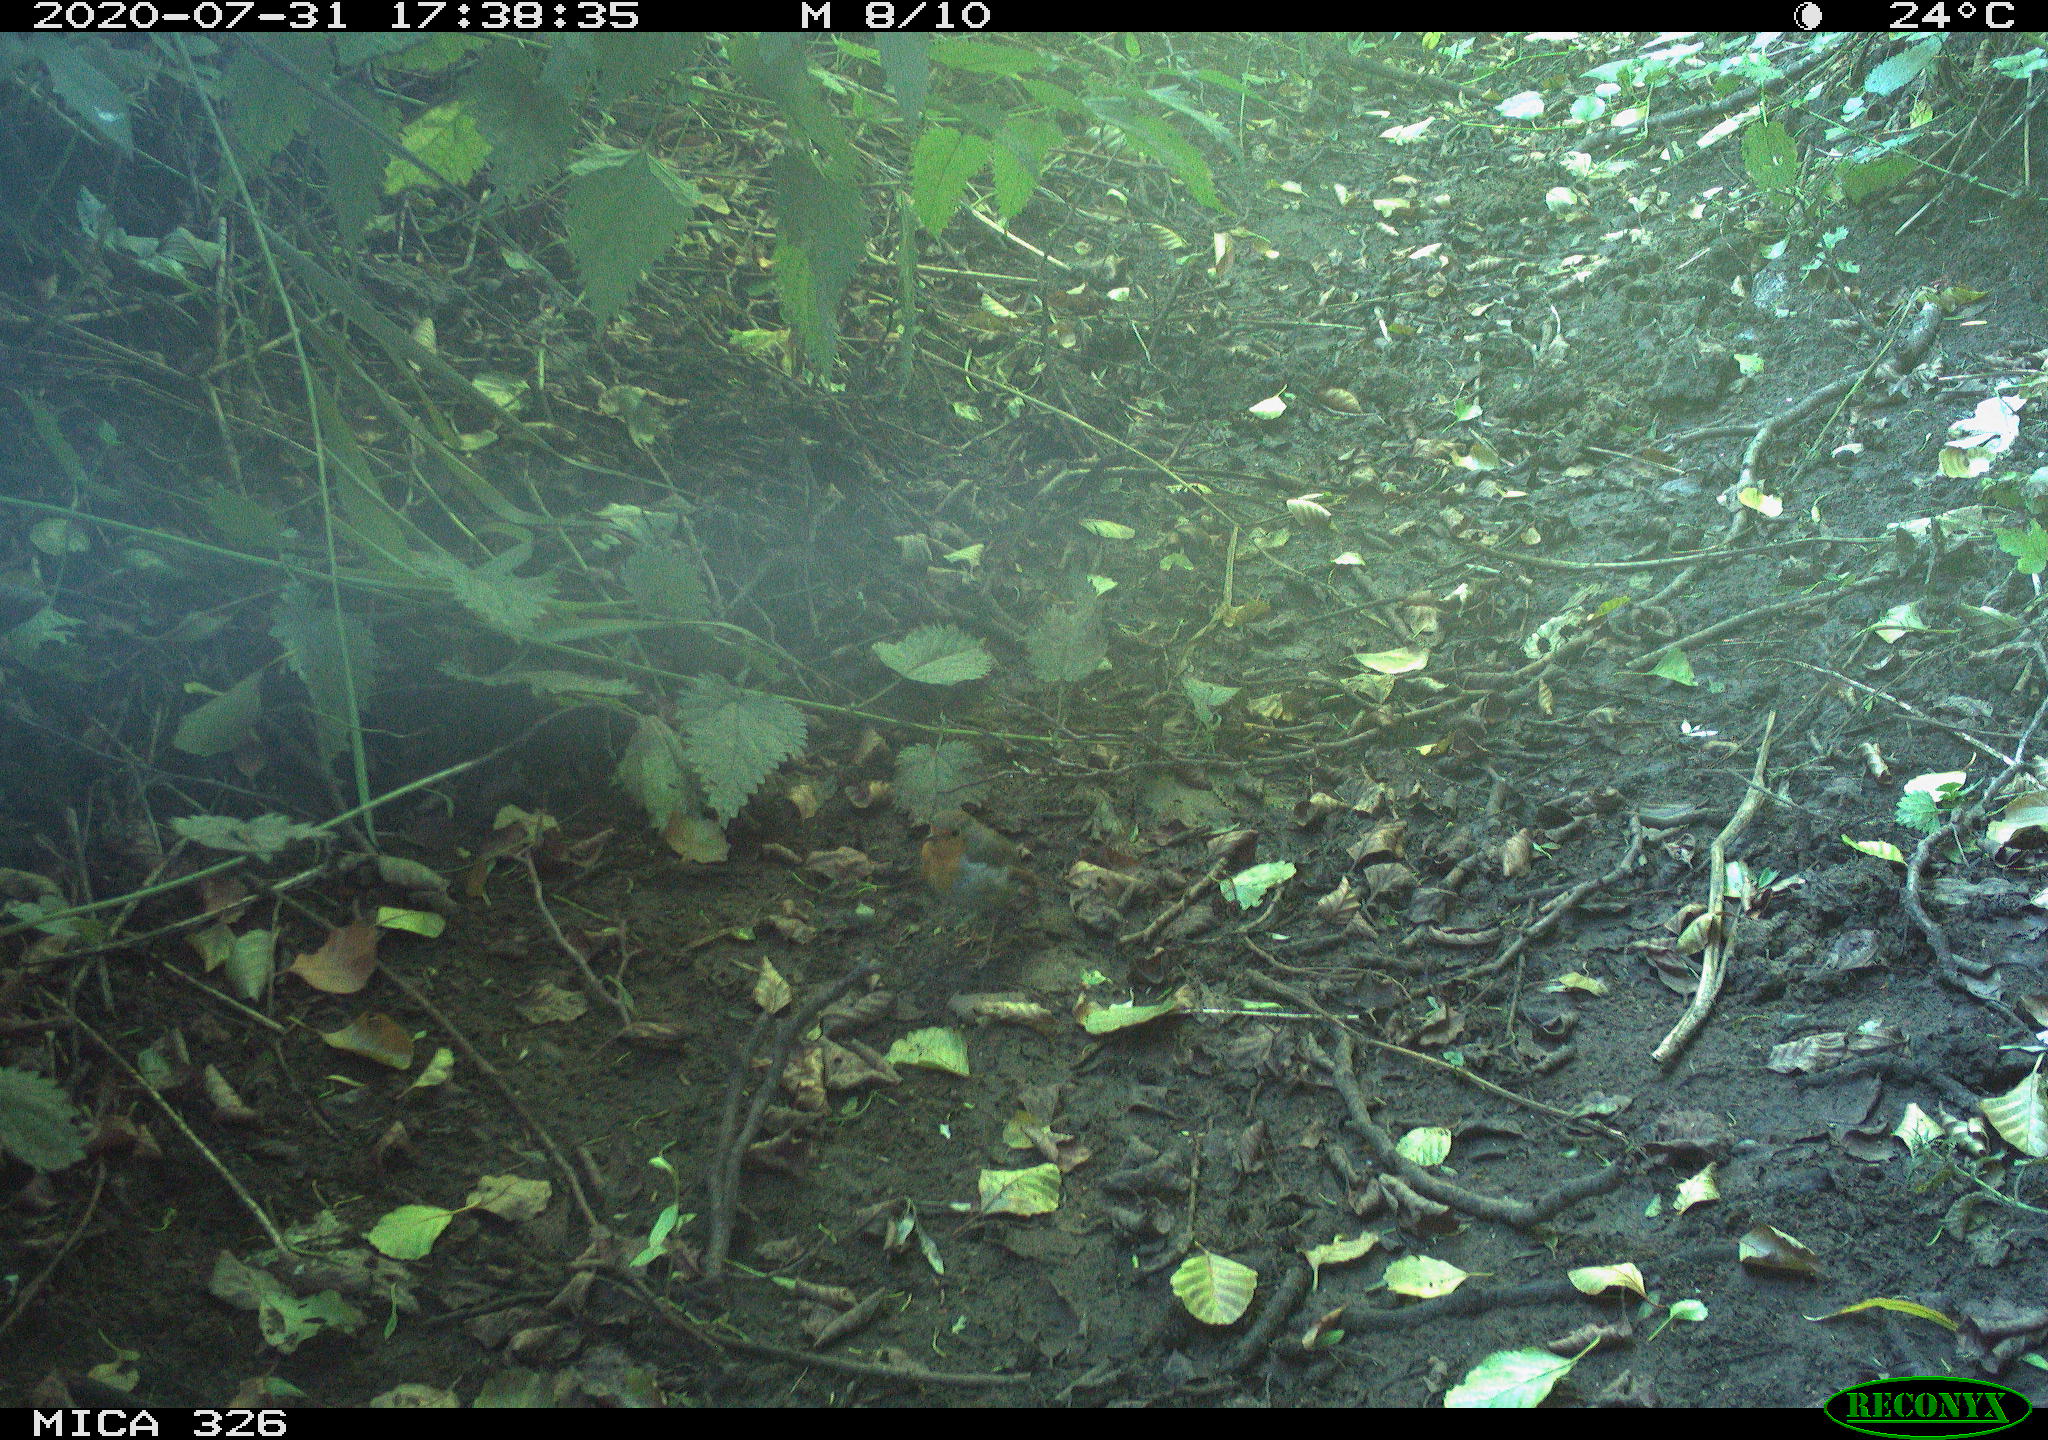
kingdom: Animalia
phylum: Chordata
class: Aves
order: Passeriformes
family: Muscicapidae
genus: Erithacus
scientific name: Erithacus rubecula
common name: European robin
